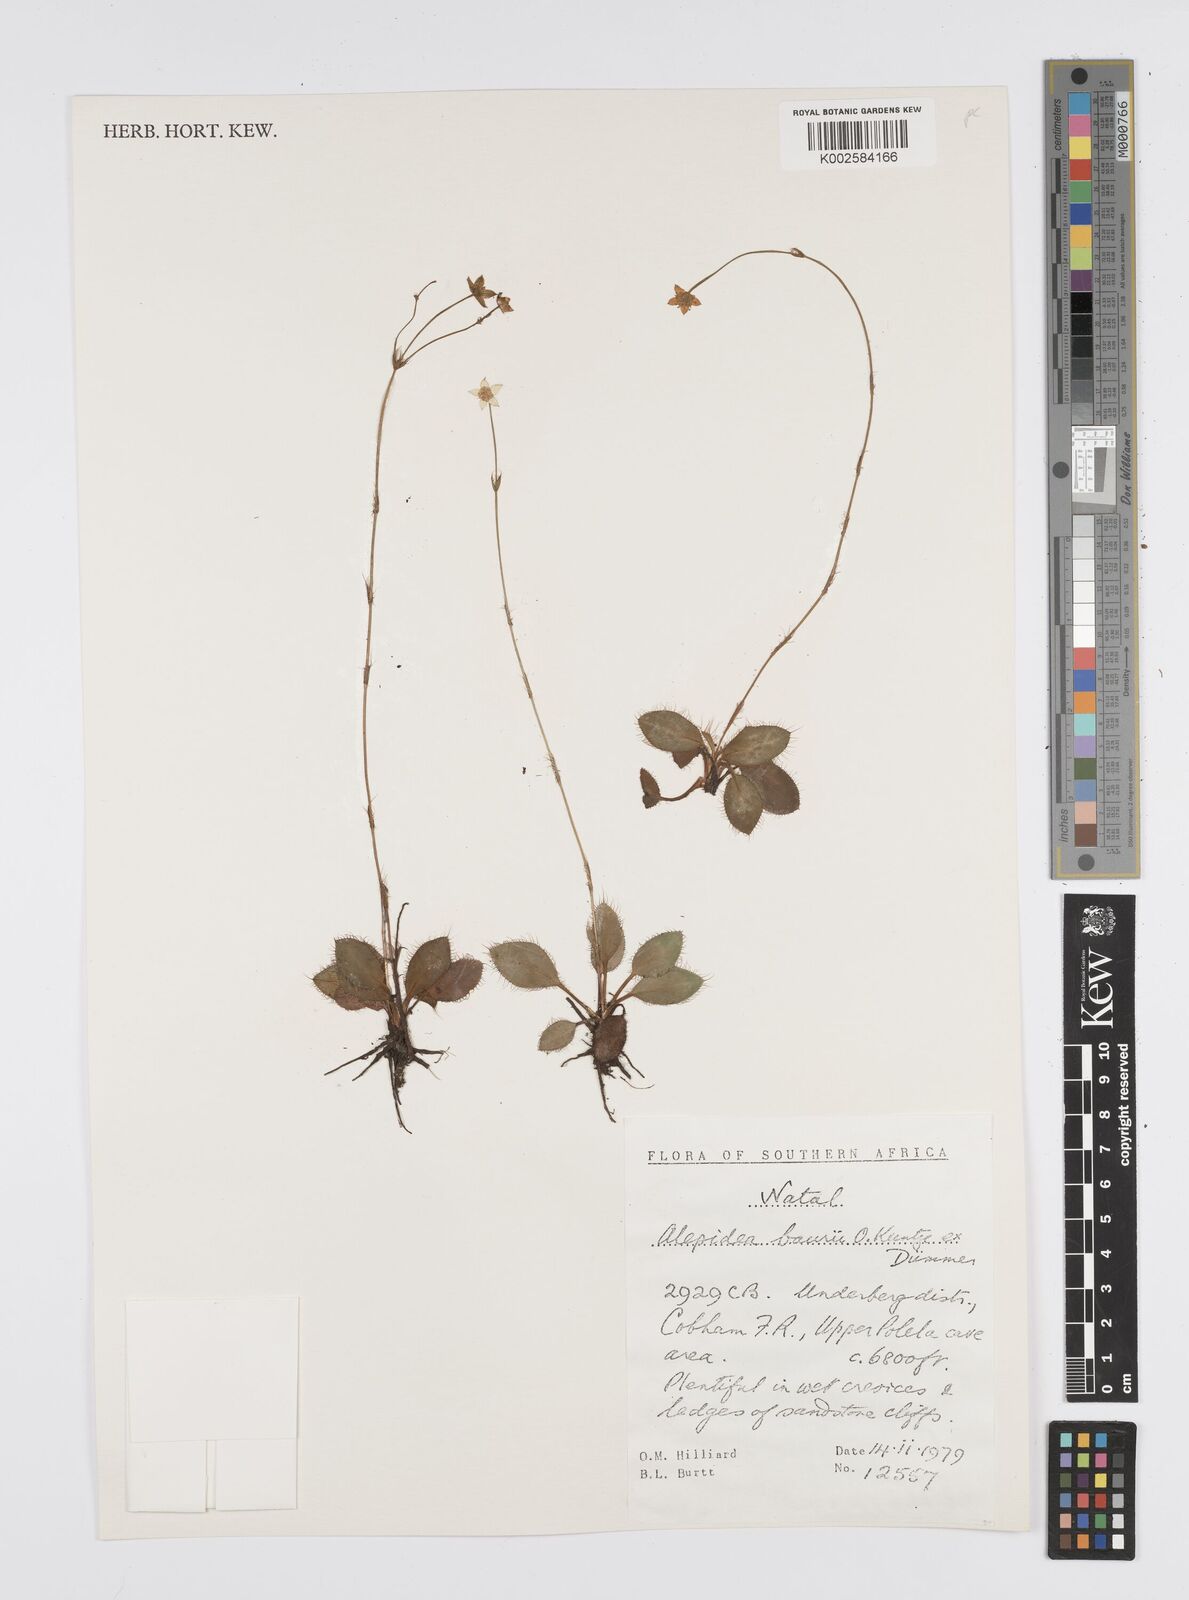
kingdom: Plantae
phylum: Tracheophyta
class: Magnoliopsida
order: Apiales
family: Apiaceae
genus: Alepidea
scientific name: Alepidea natalensis
